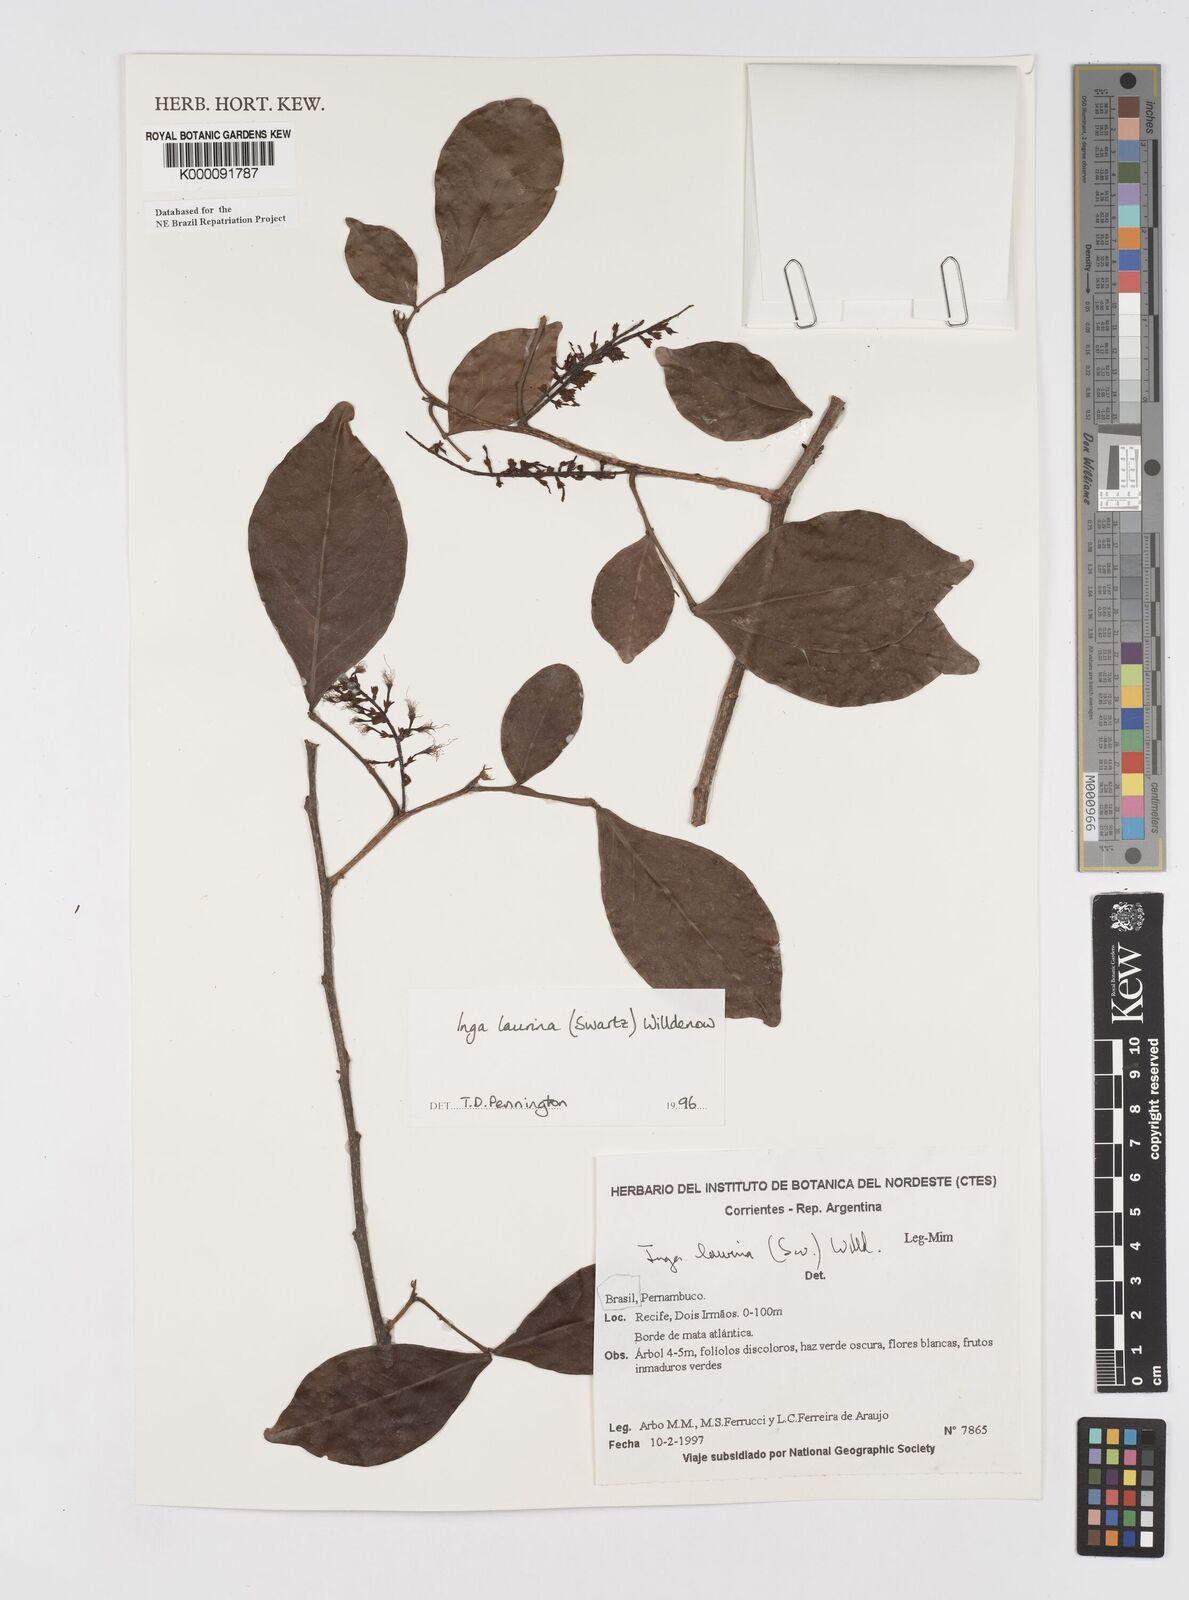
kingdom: Plantae
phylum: Tracheophyta
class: Magnoliopsida
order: Fabales
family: Fabaceae
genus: Inga
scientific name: Inga laurina
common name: Red wood
